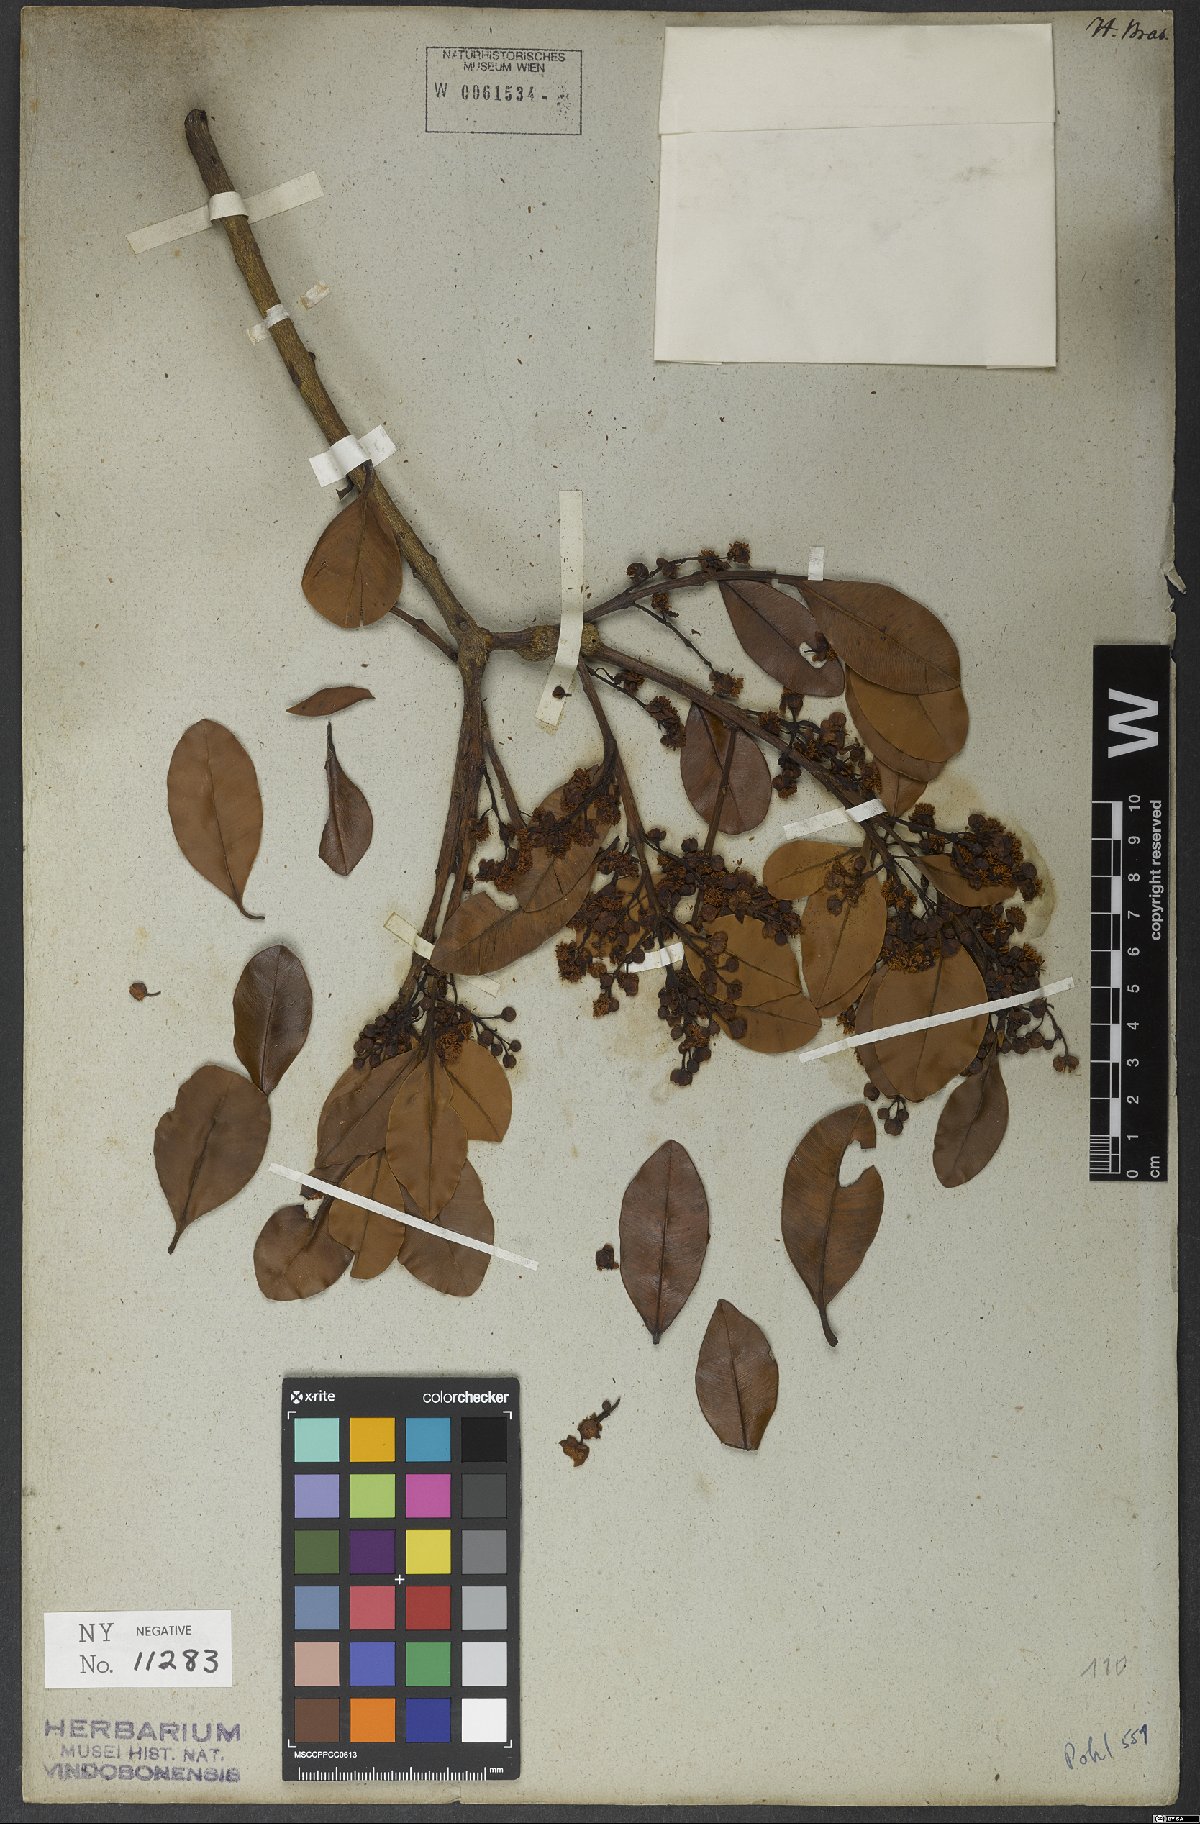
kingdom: Plantae
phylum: Tracheophyta
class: Magnoliopsida
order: Malpighiales
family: Calophyllaceae
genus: Calophyllum
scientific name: Calophyllum brasiliense
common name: Santa maria
